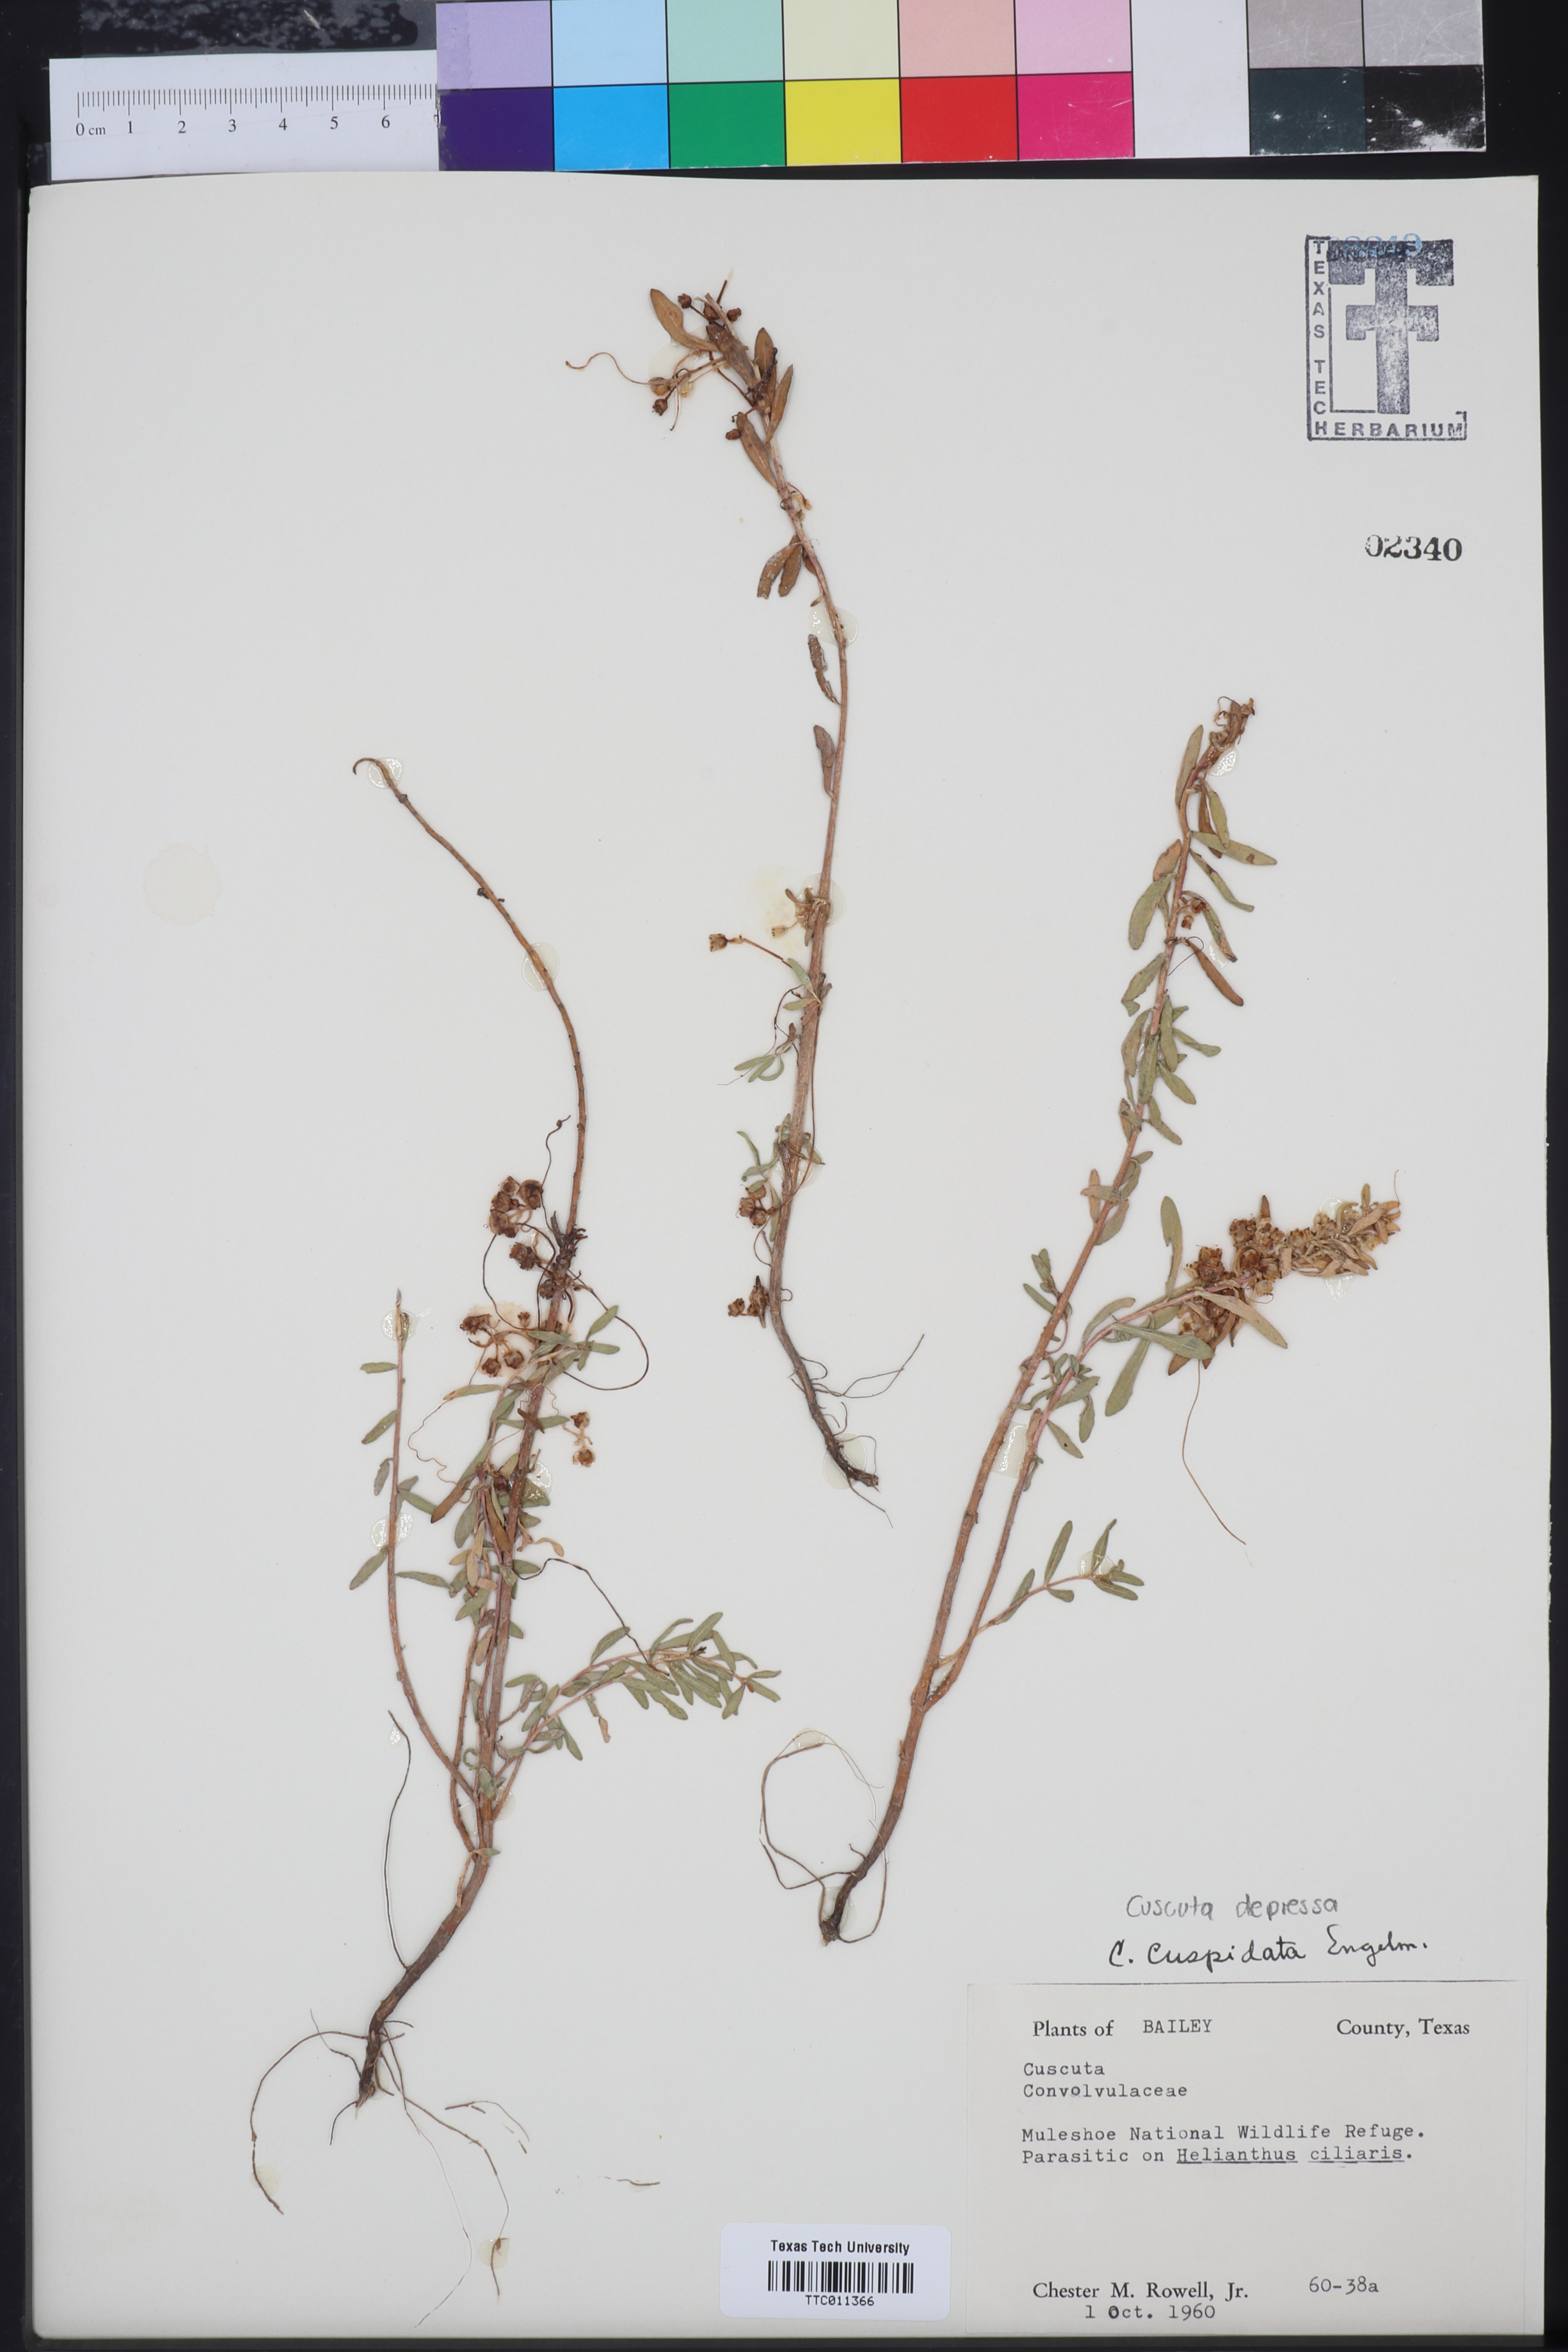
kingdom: Plantae
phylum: Tracheophyta
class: Magnoliopsida
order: Solanales
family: Convolvulaceae
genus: Cressa
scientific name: Cressa
